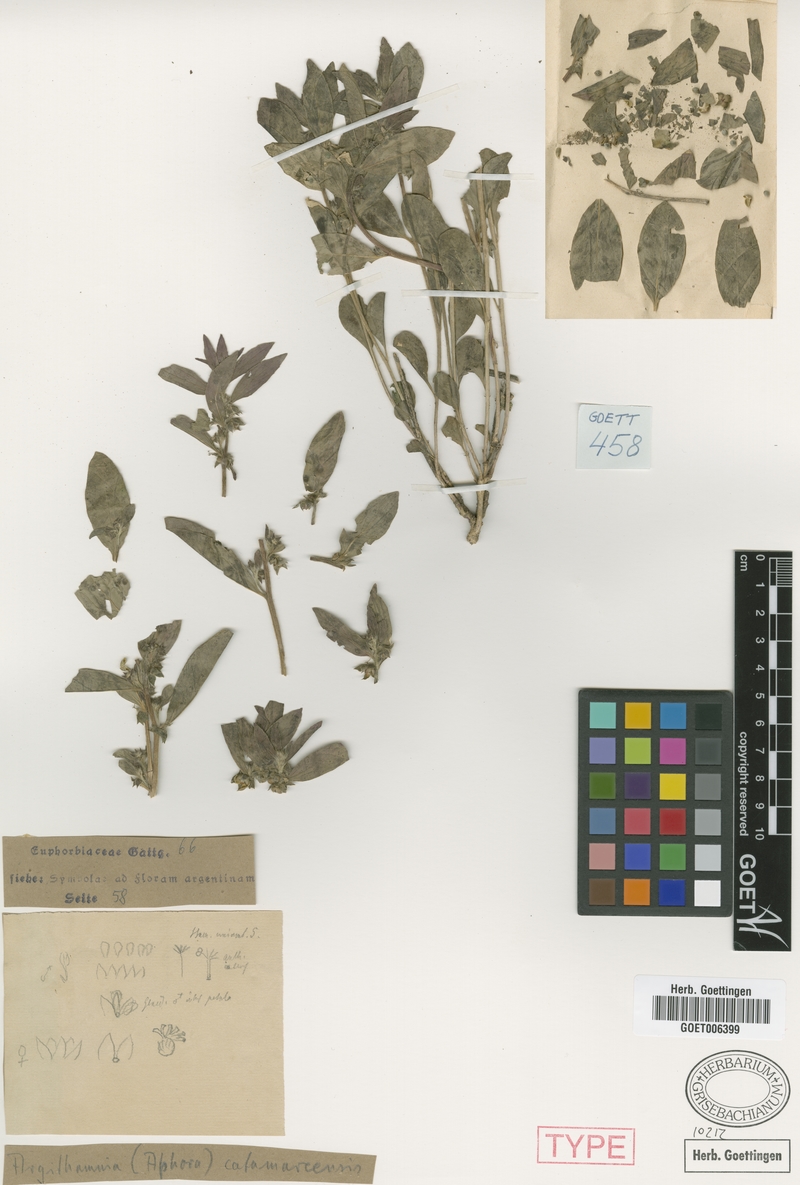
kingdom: Plantae
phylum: Tracheophyta
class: Magnoliopsida
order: Malpighiales
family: Euphorbiaceae
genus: Ditaxis
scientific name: Ditaxis catamarcensis
